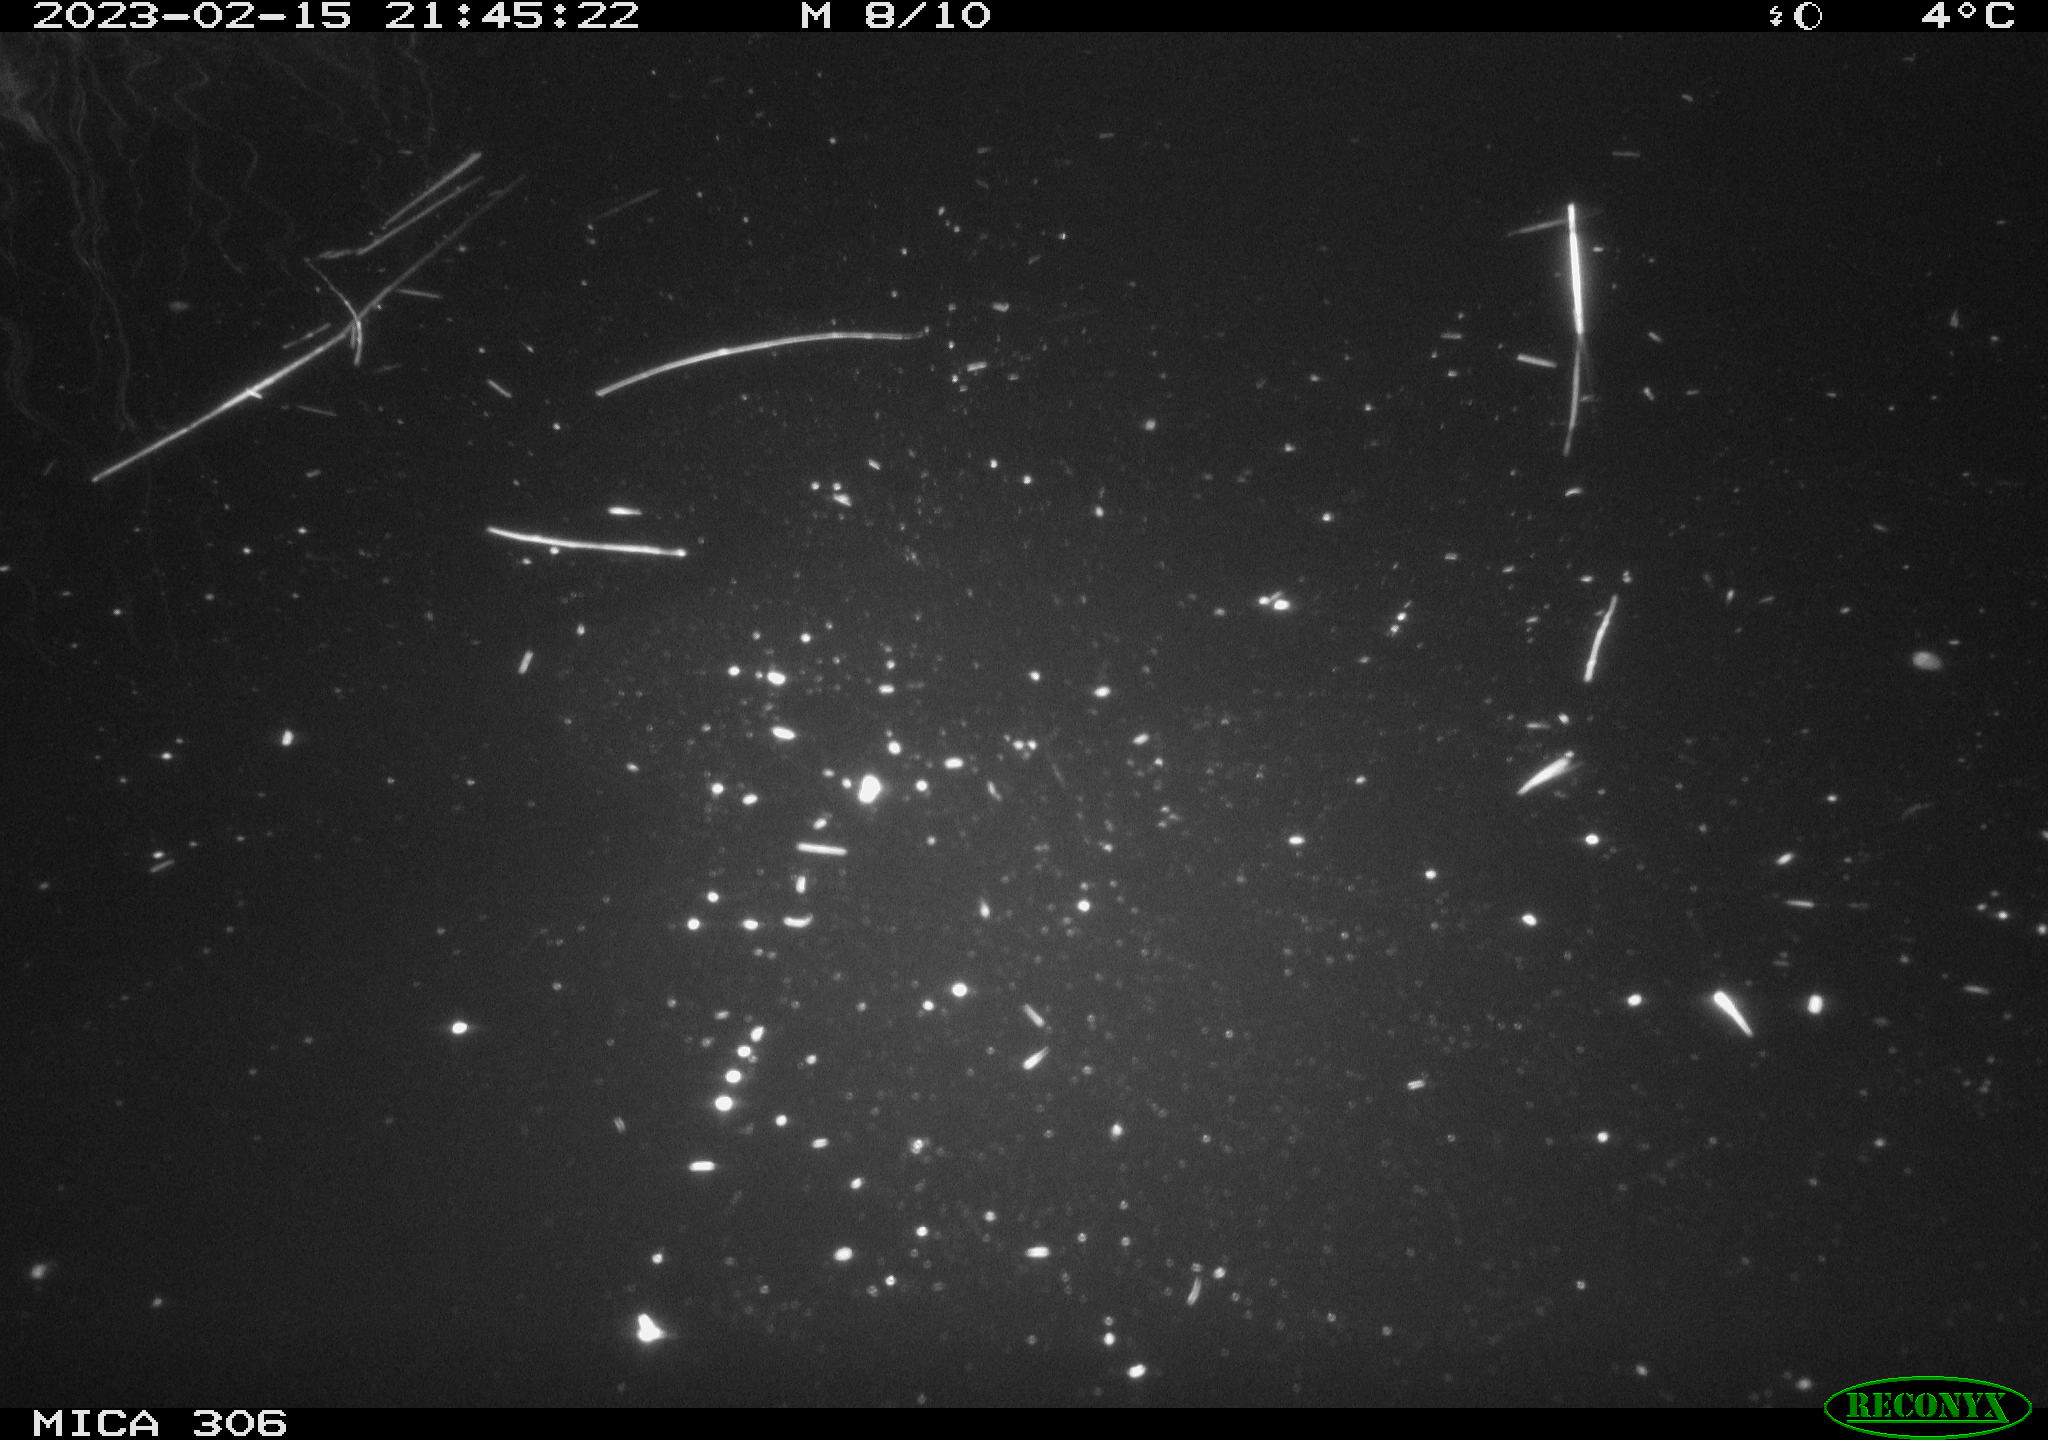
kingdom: Animalia
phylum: Chordata
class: Mammalia
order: Rodentia
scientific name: Rodentia
